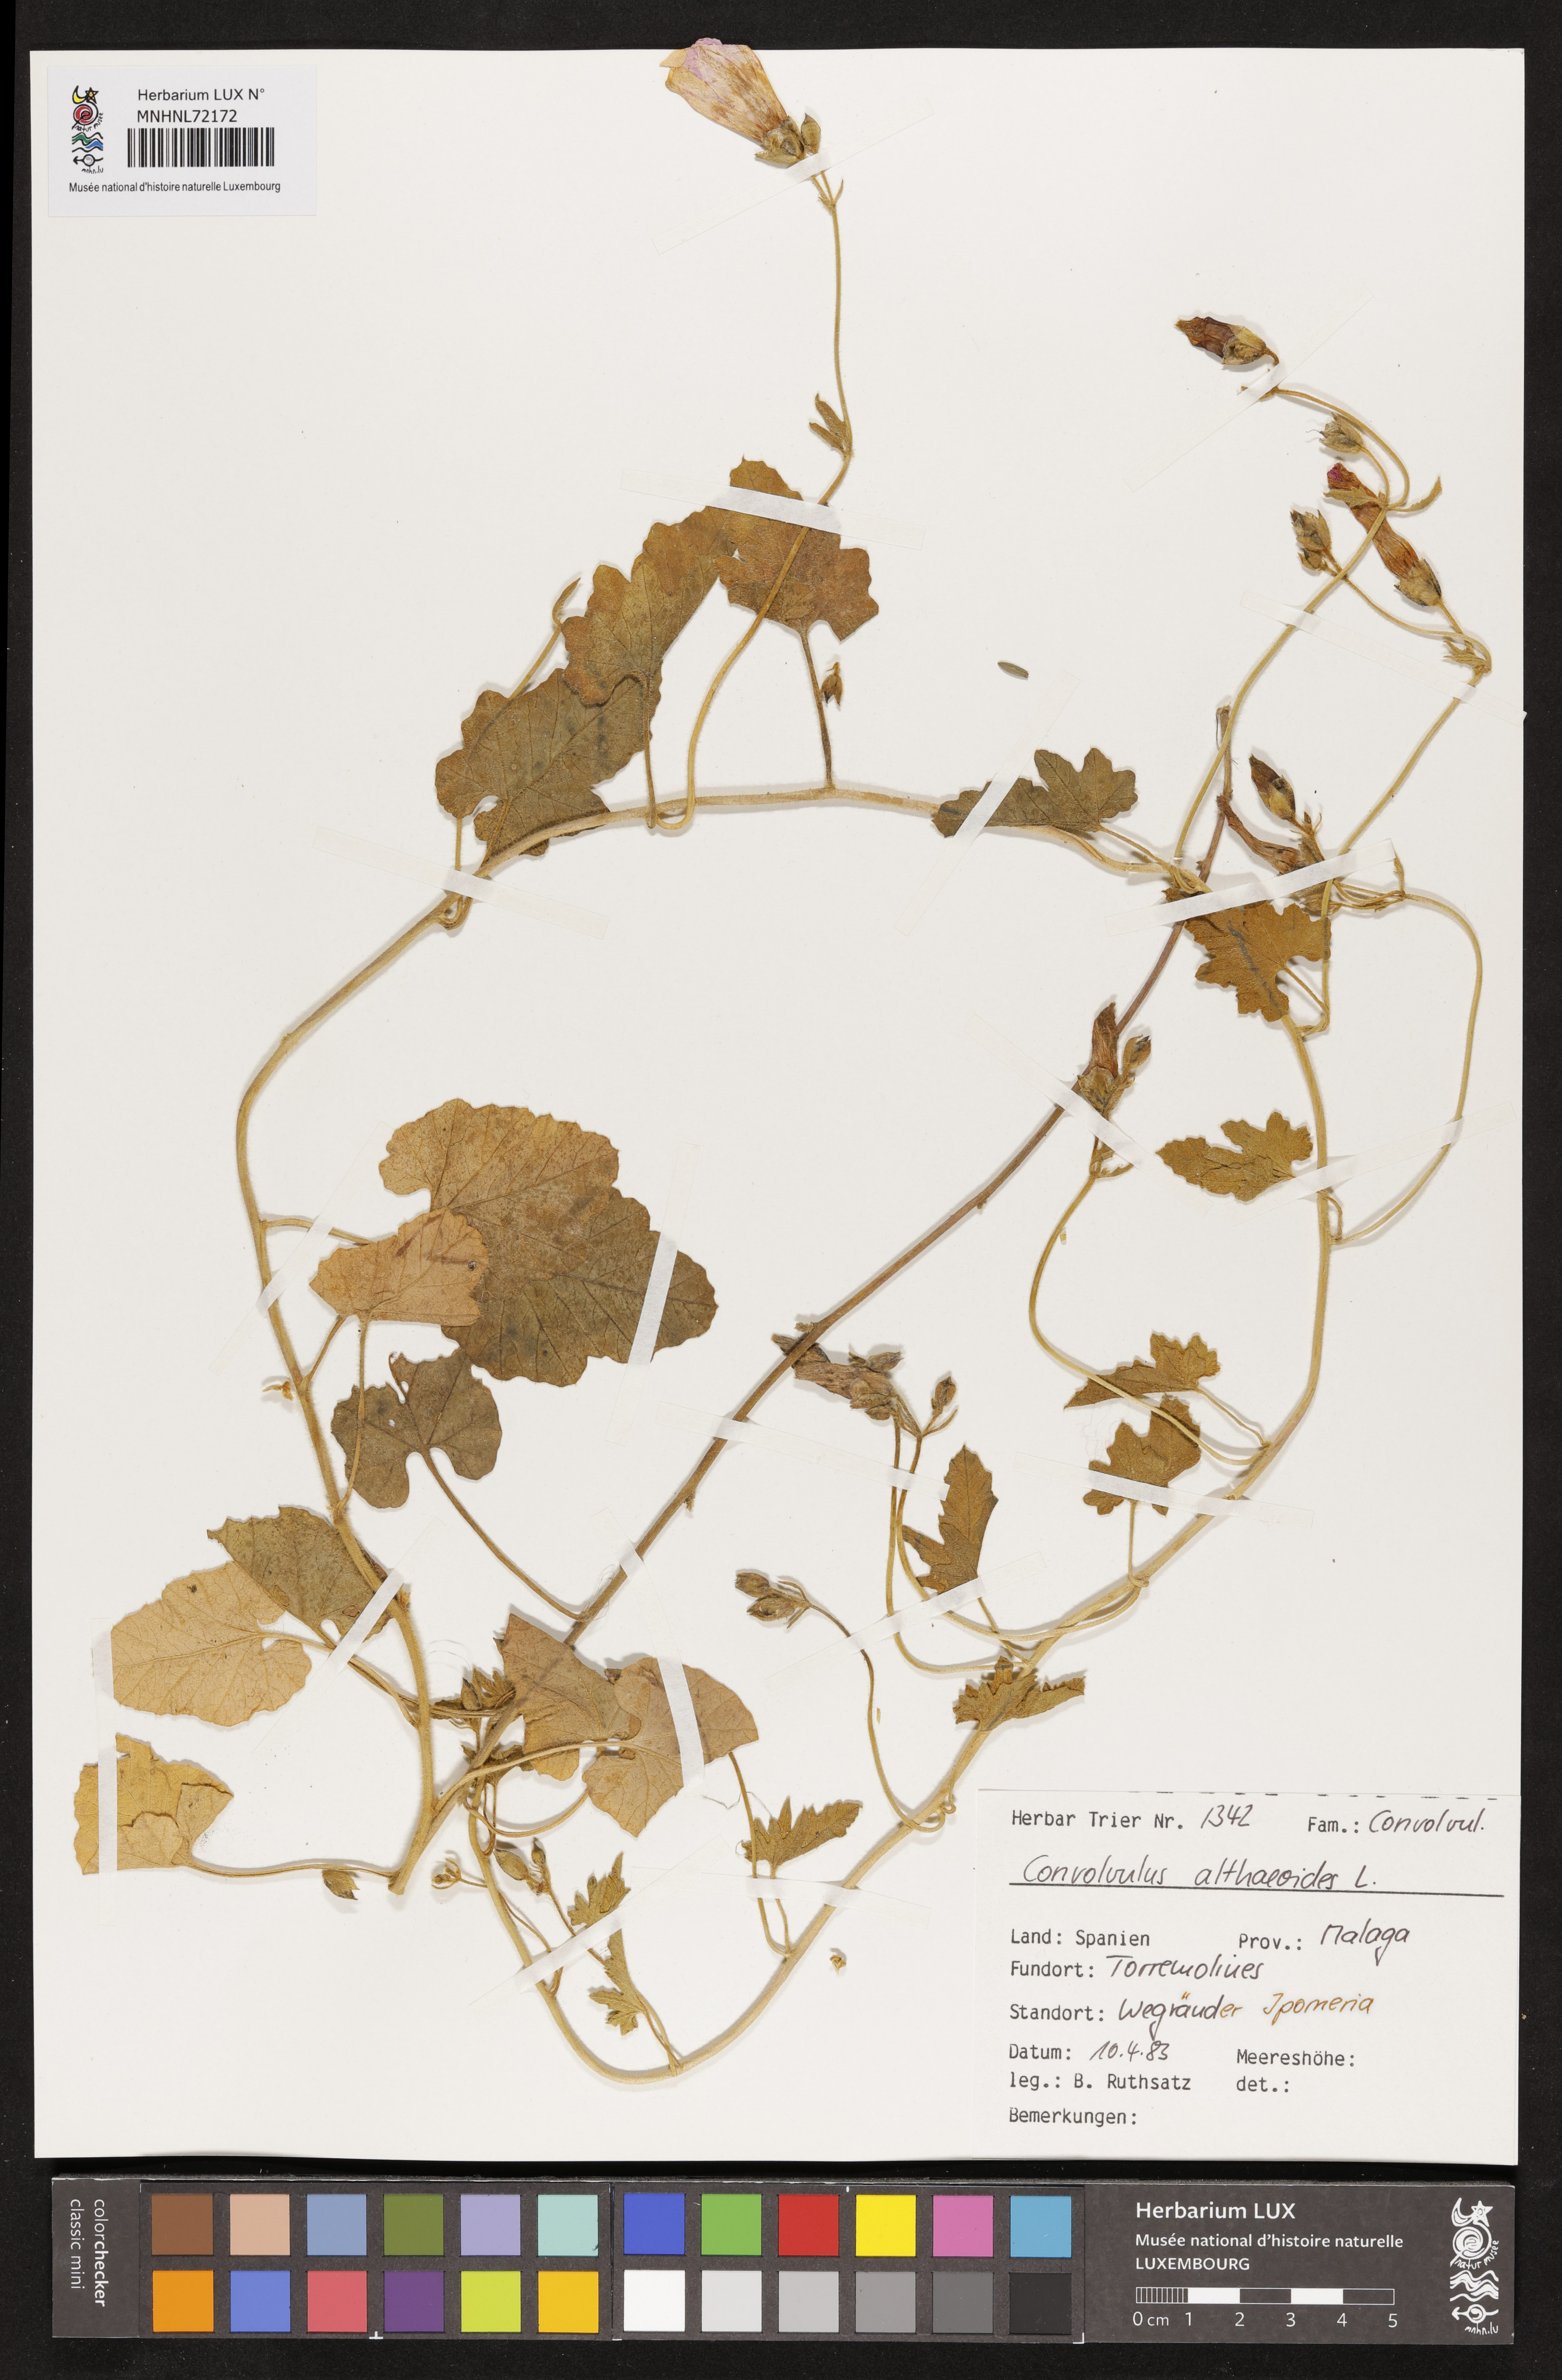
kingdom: Plantae
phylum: Tracheophyta
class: Magnoliopsida
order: Solanales
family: Convolvulaceae
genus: Convolvulus
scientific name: Convolvulus althaeoides
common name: Mallow bindweed
